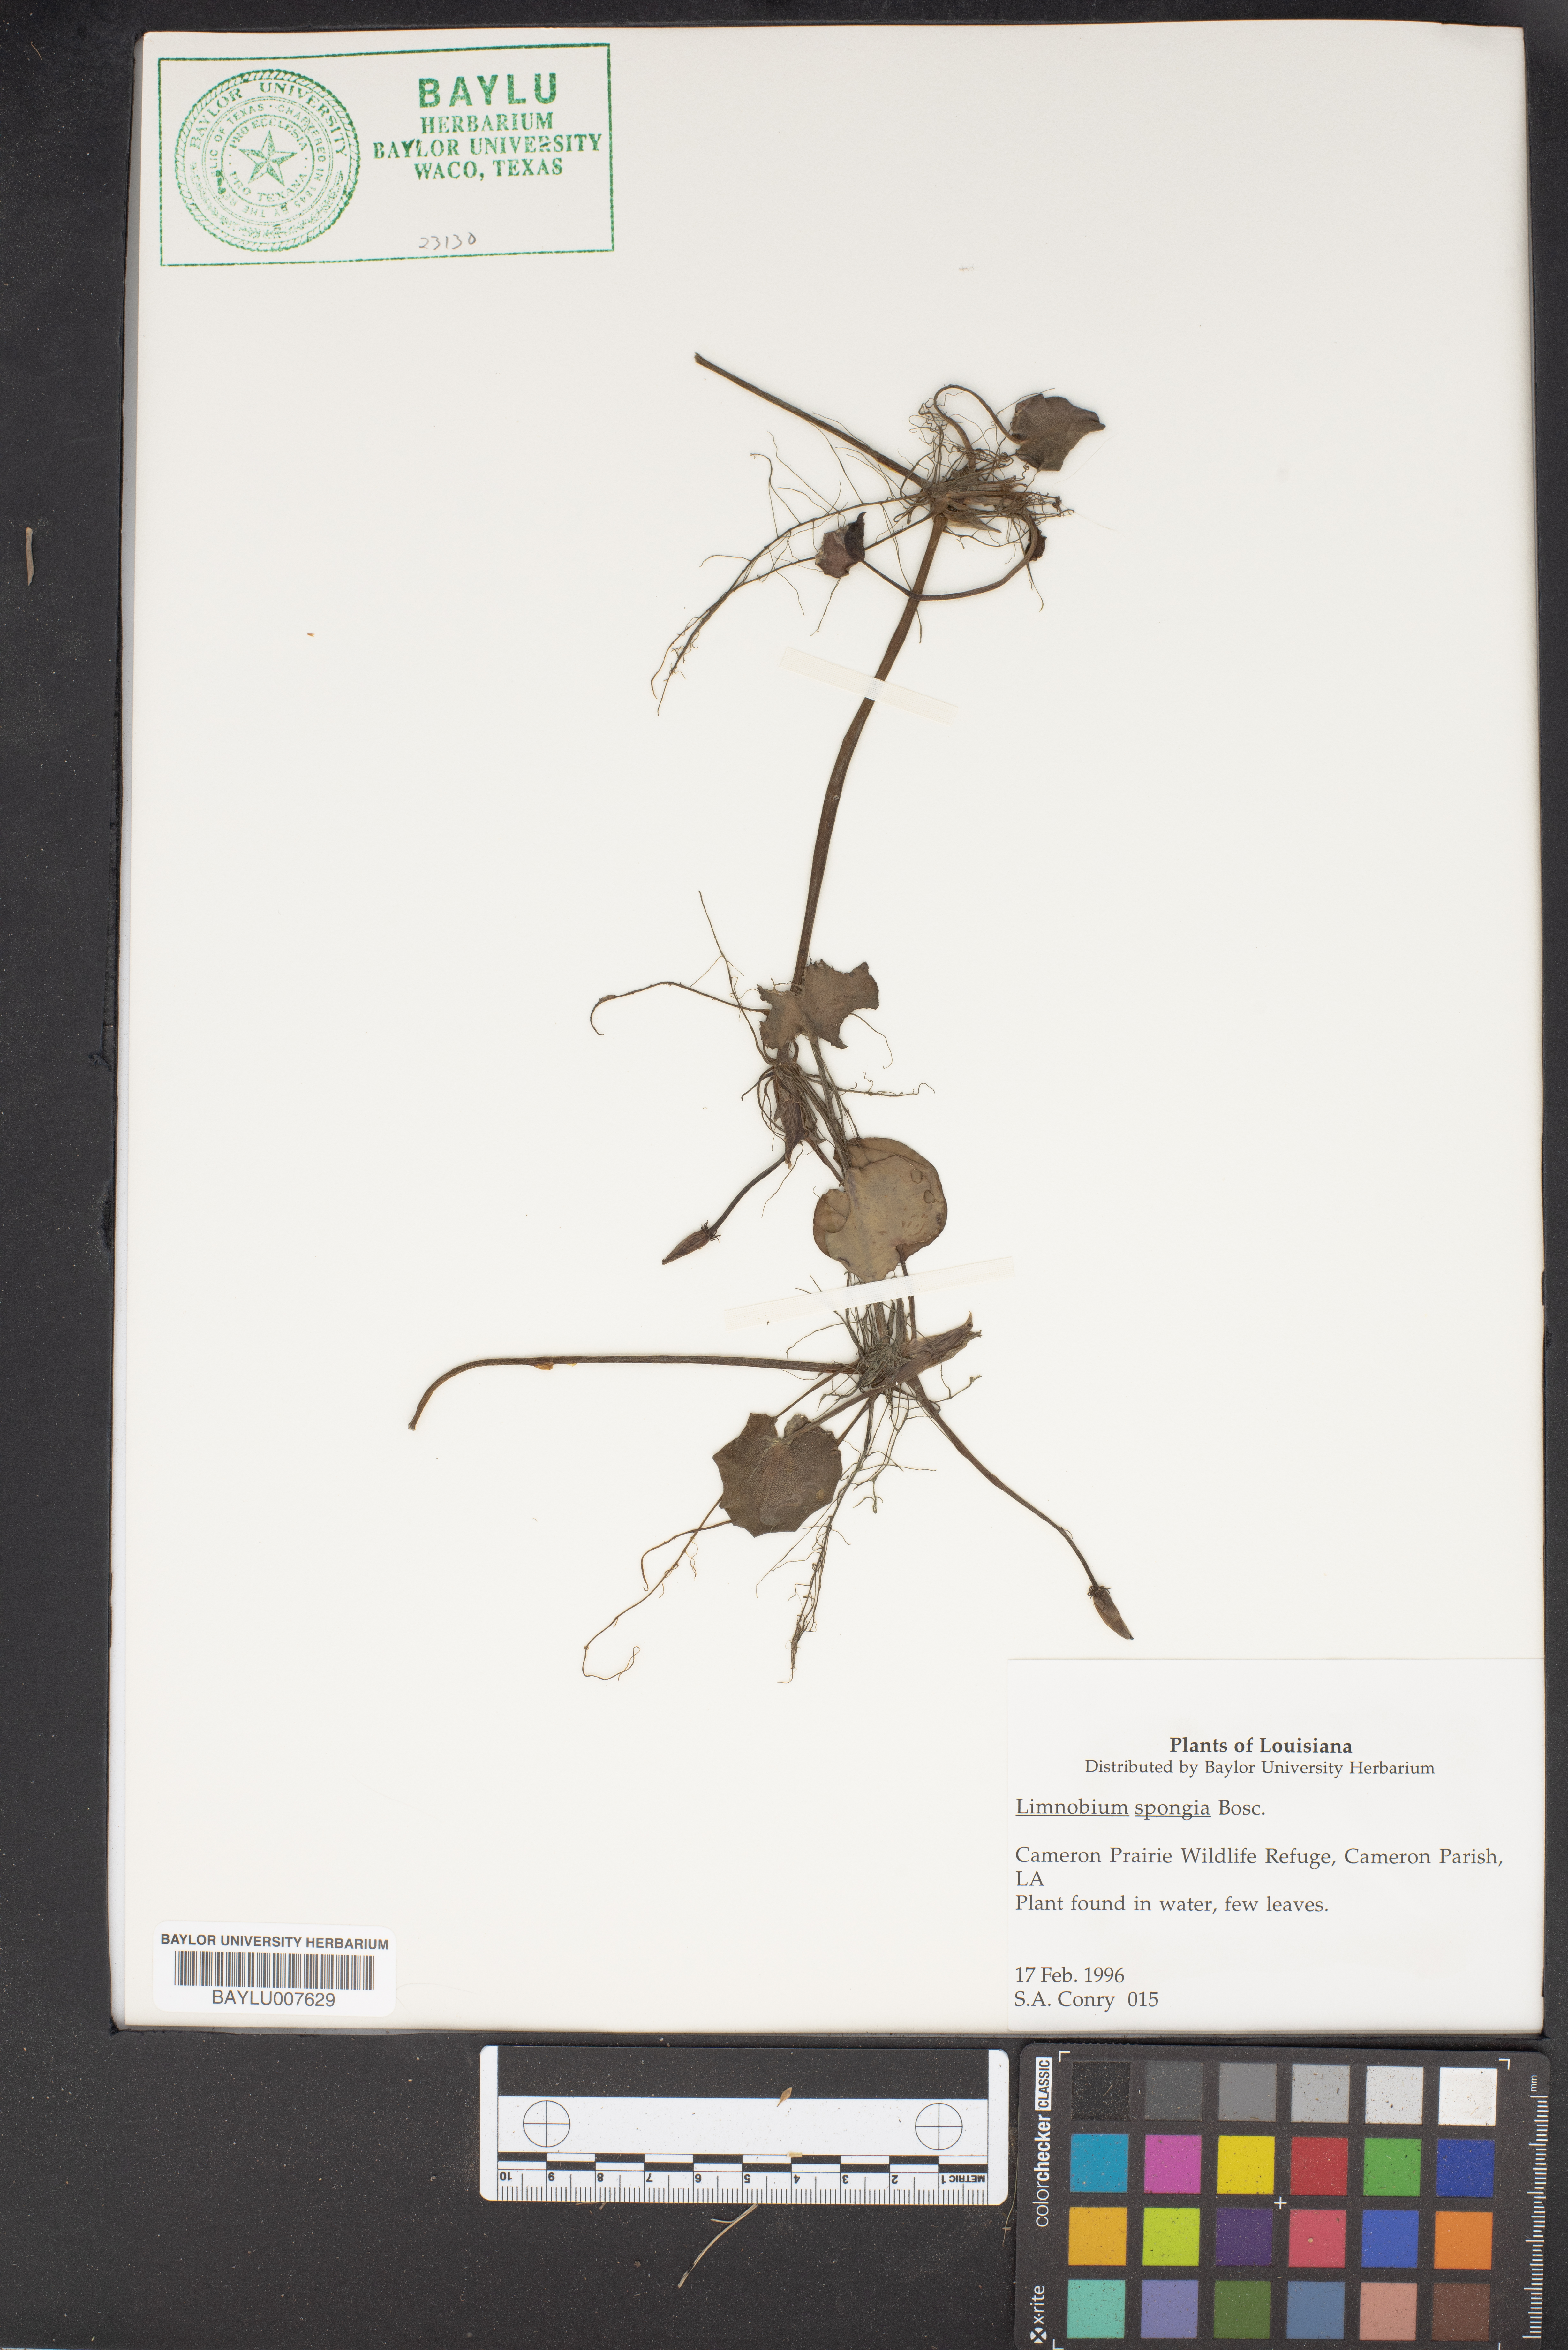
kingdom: Plantae
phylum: Tracheophyta
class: Liliopsida
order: Alismatales
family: Hydrocharitaceae
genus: Hydrocharis
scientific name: Hydrocharis spongia
